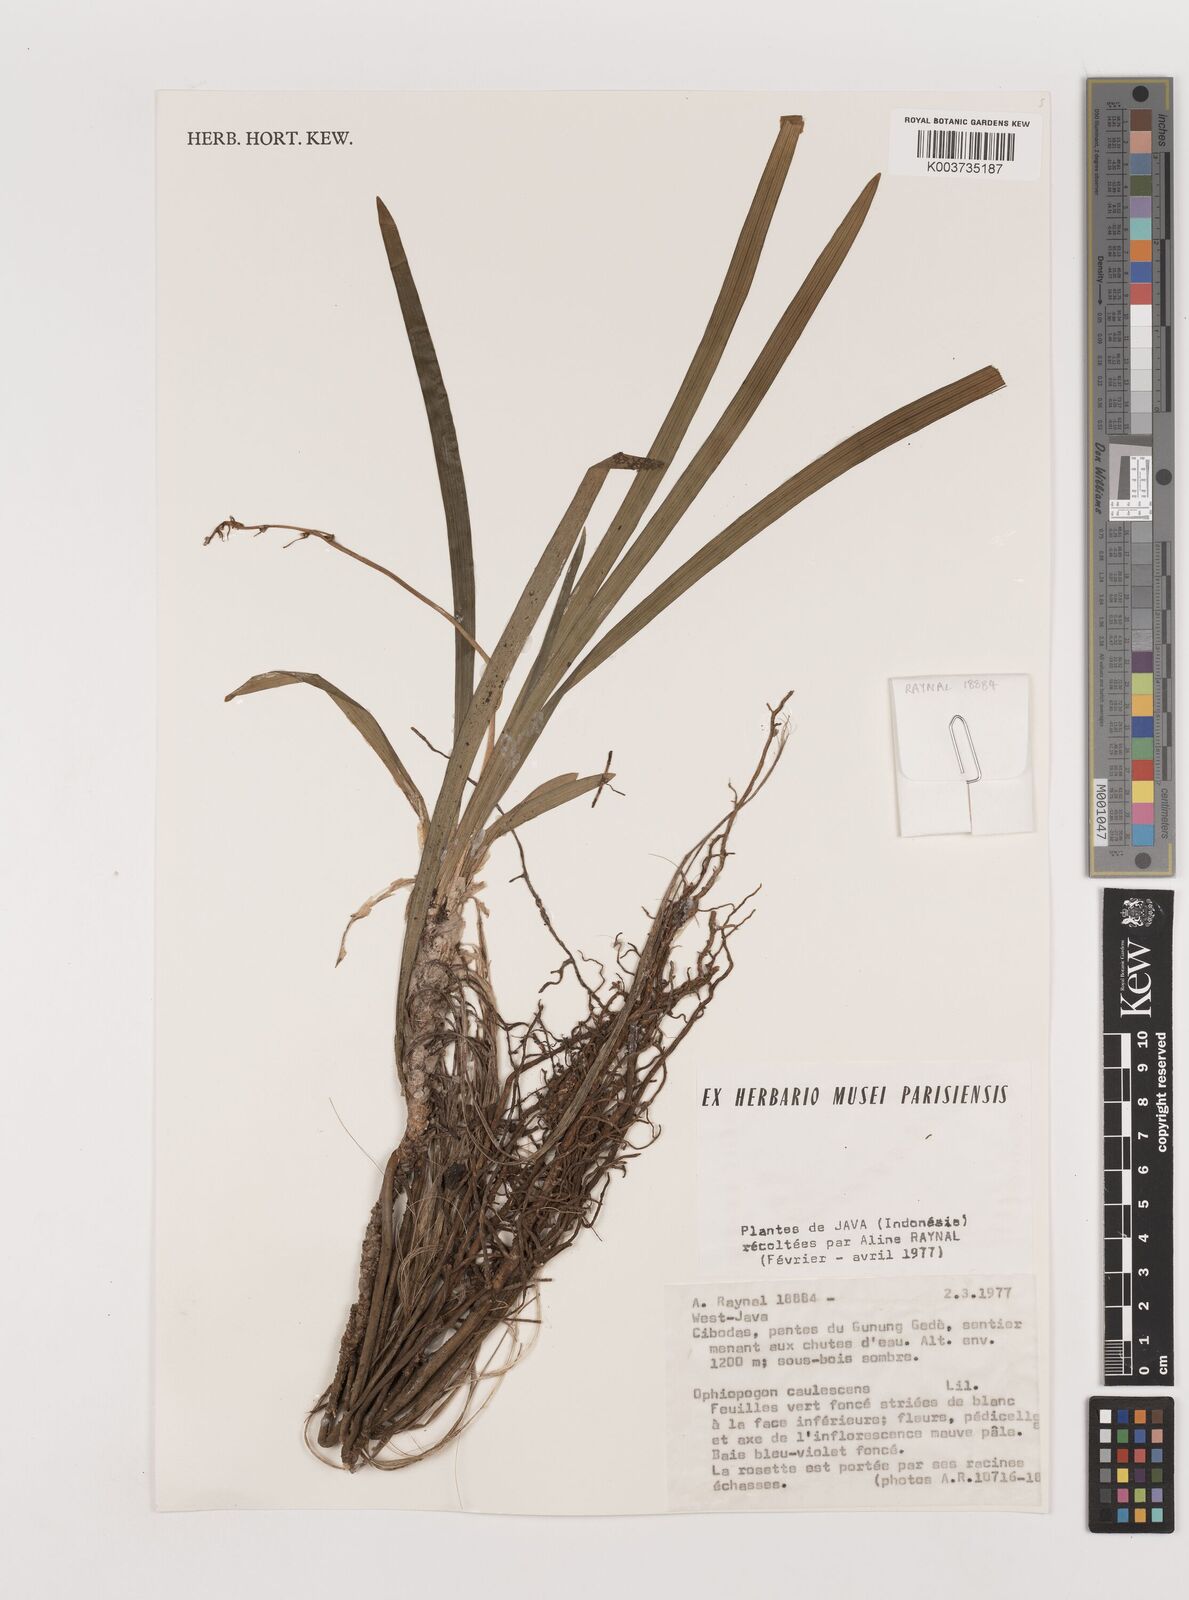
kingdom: Plantae
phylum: Tracheophyta
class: Liliopsida
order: Asparagales
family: Asparagaceae
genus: Ophiopogon
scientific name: Ophiopogon caulescens
